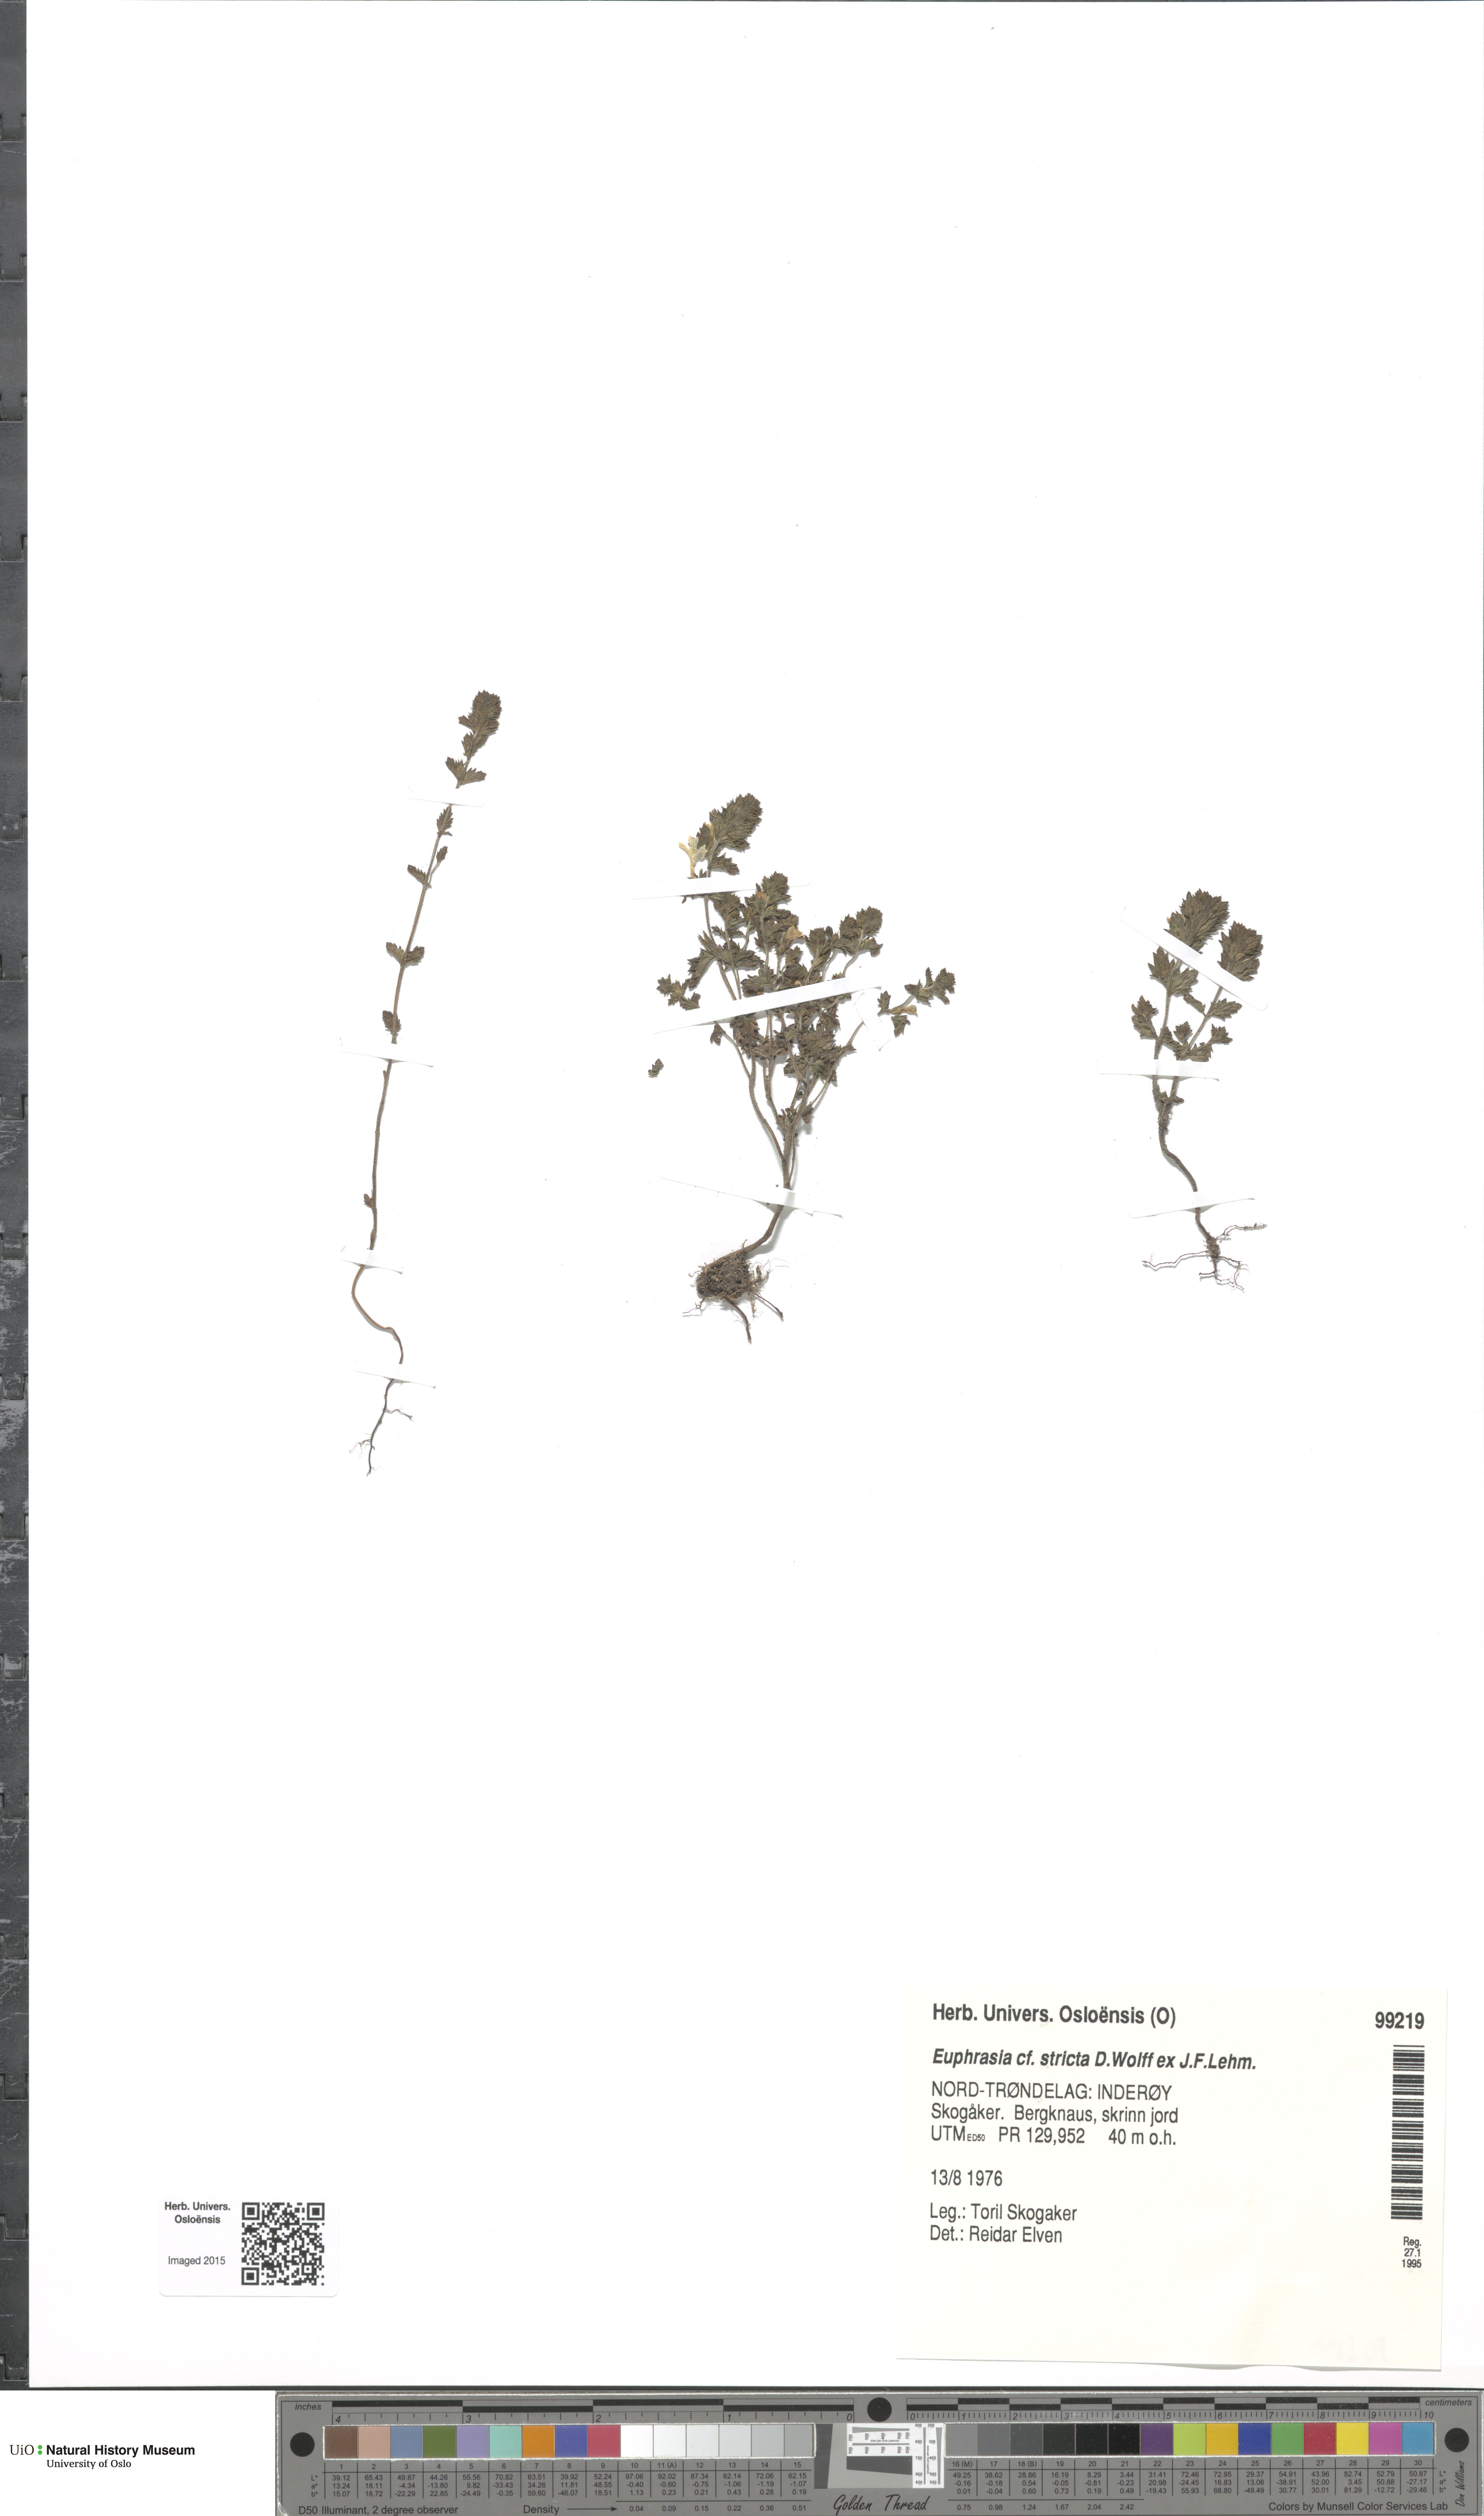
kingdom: Plantae
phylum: Tracheophyta
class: Magnoliopsida
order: Lamiales
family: Orobanchaceae
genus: Euphrasia
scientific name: Euphrasia stricta
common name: Drug eyebright
